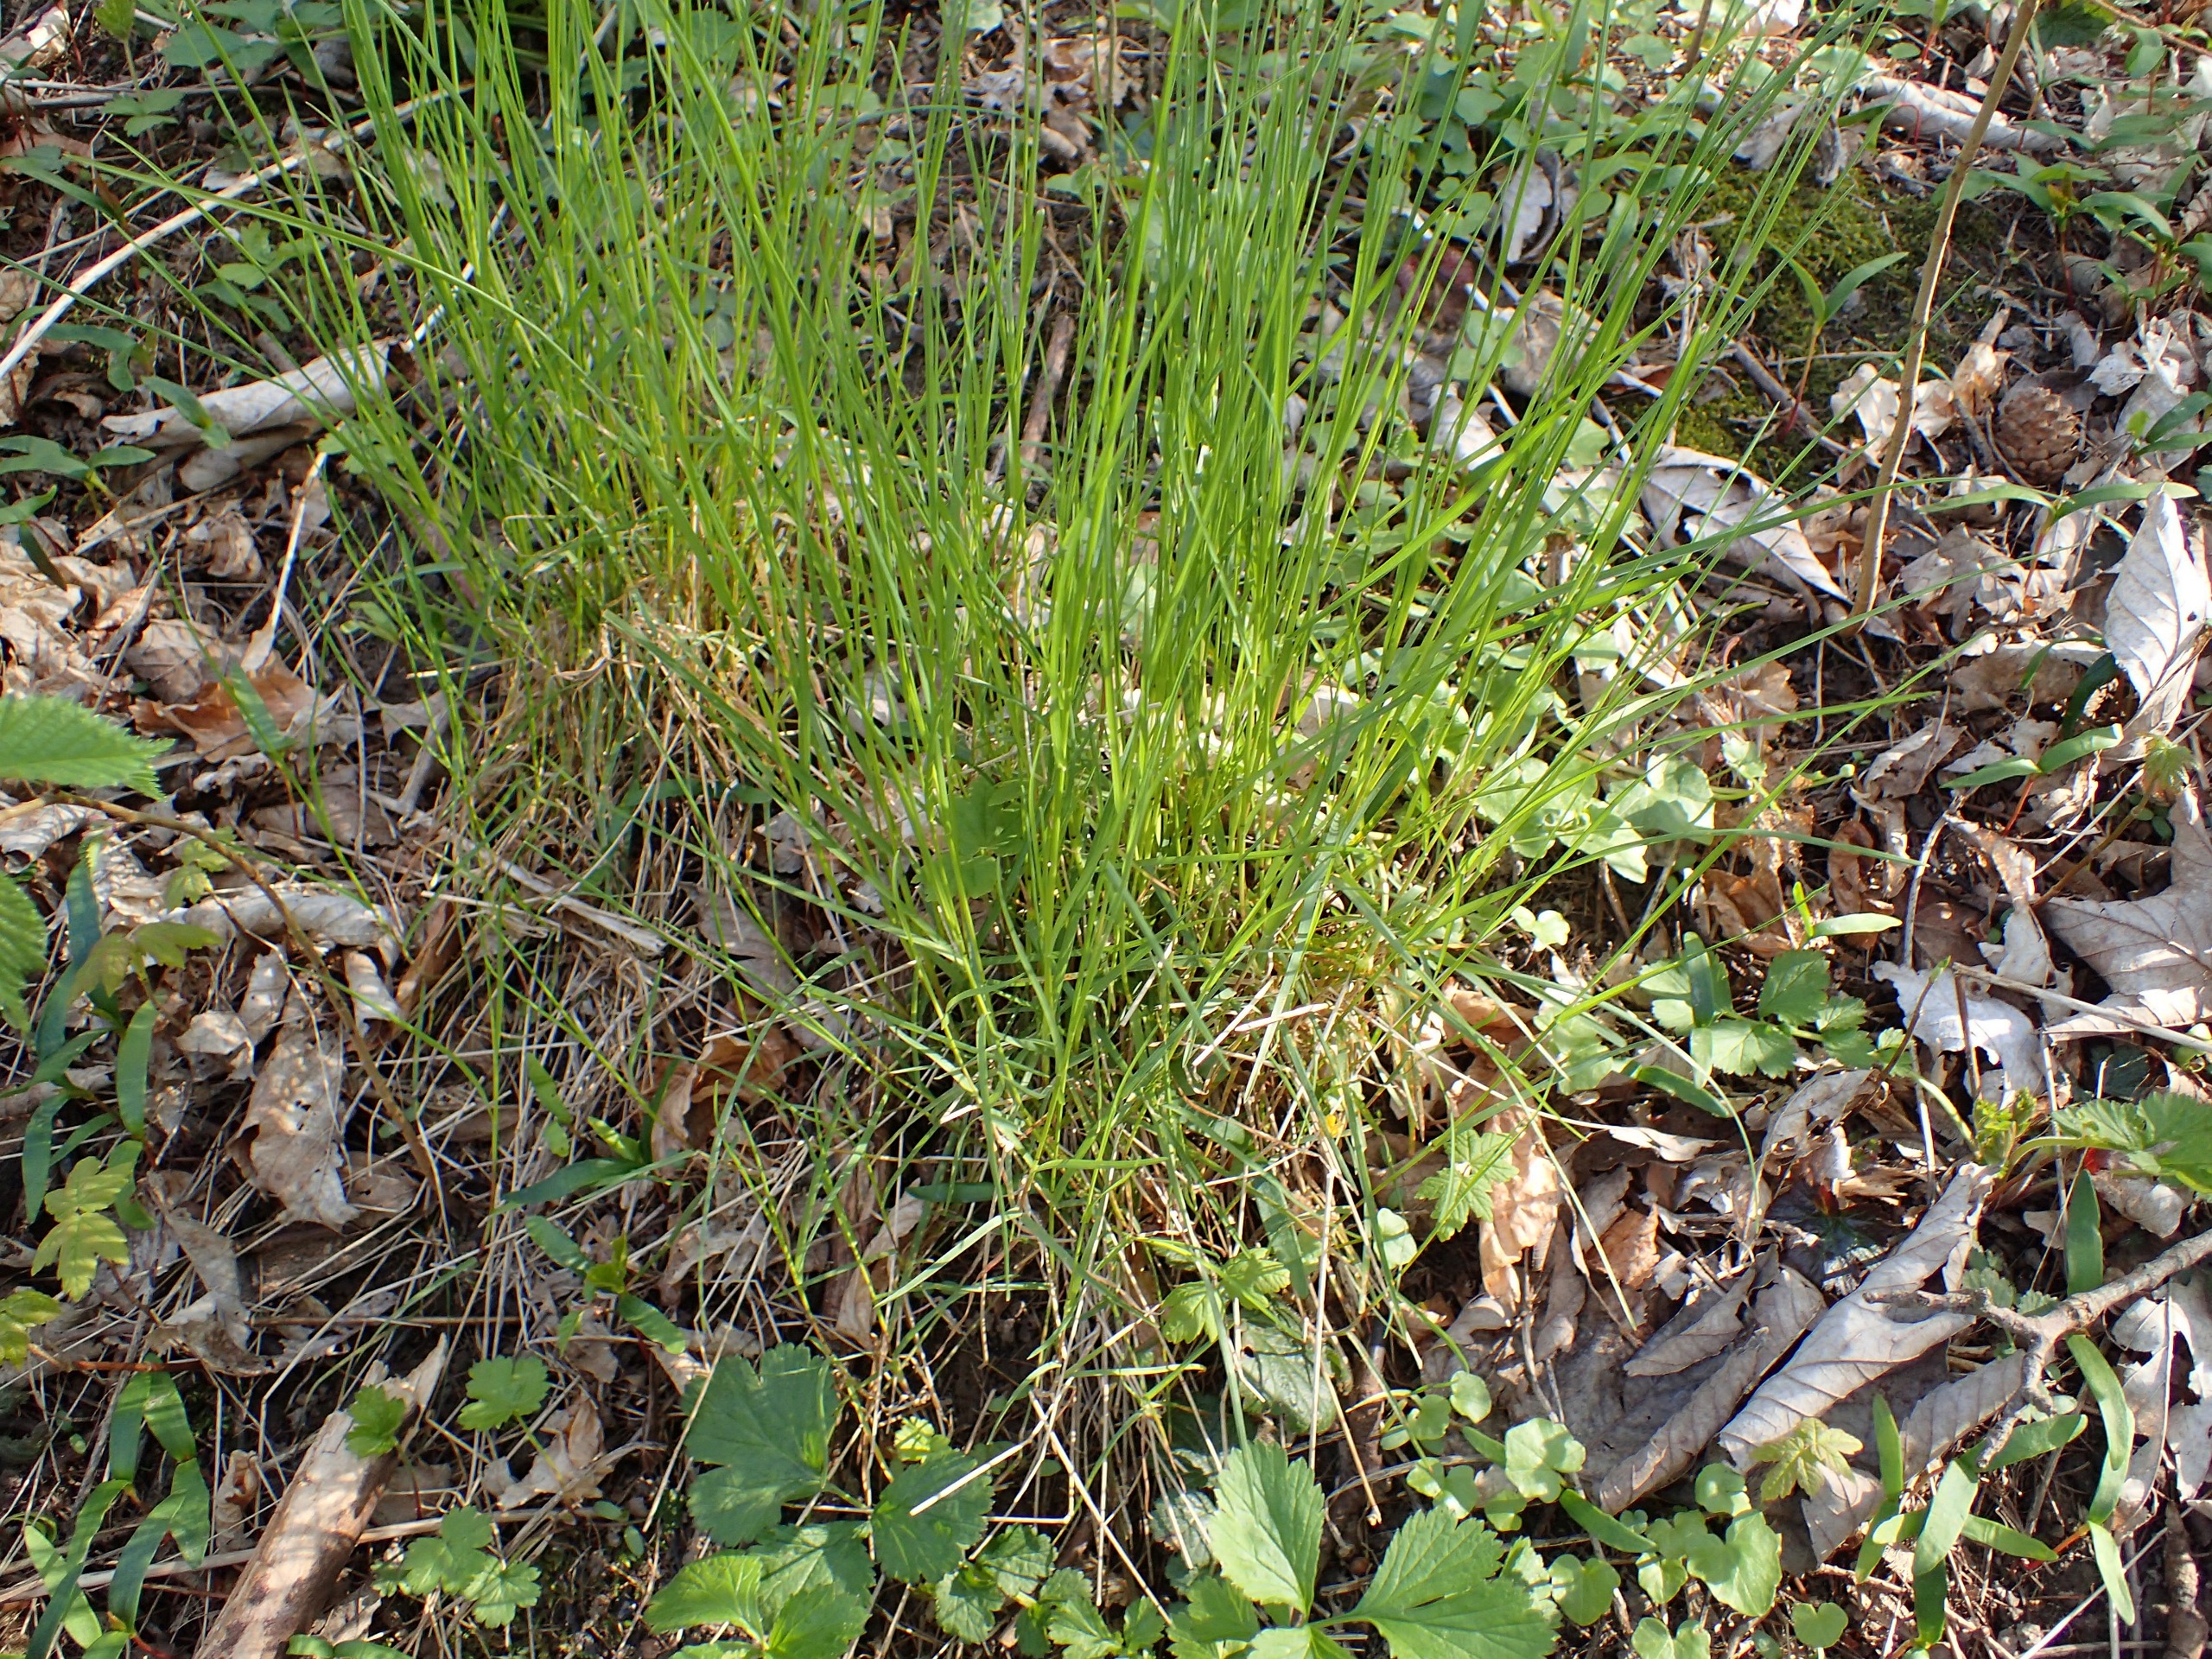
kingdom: Plantae
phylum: Tracheophyta
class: Liliopsida
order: Poales
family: Poaceae
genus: Poa
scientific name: Poa nemoralis
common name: Lund-rapgræs
